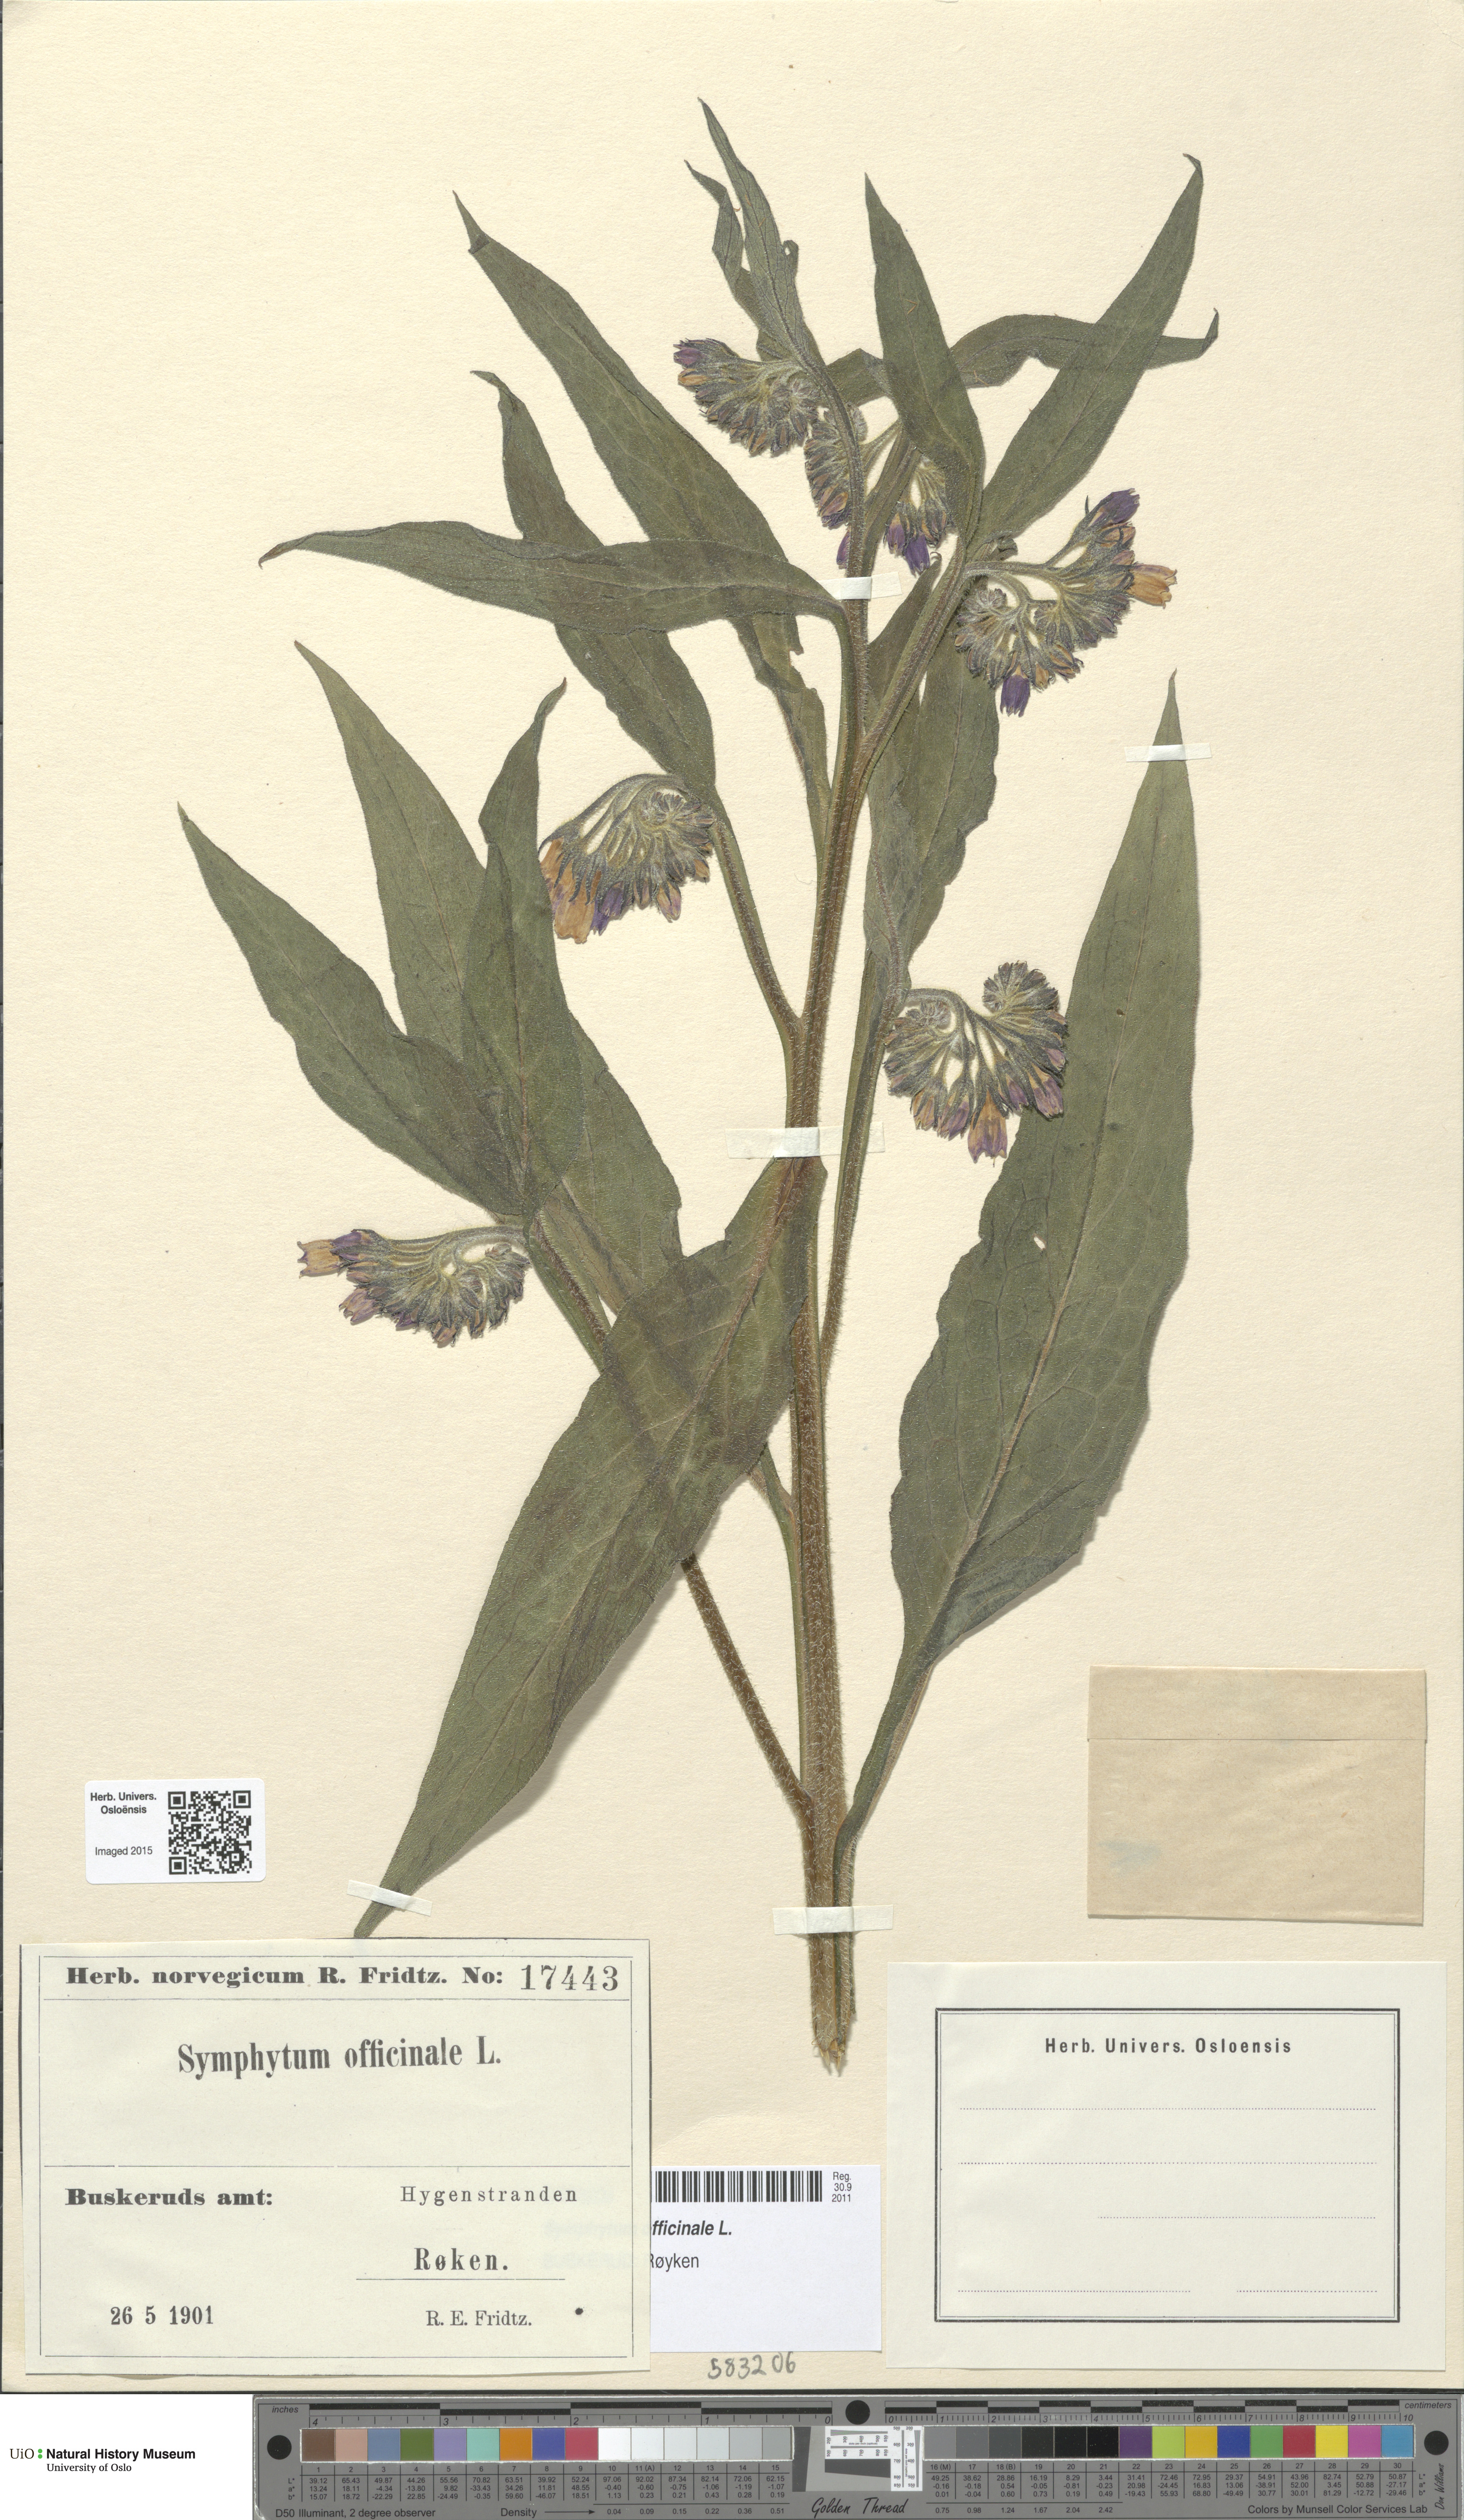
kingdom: Plantae
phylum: Tracheophyta
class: Magnoliopsida
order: Boraginales
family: Boraginaceae
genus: Symphytum
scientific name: Symphytum officinale
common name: Common comfrey
